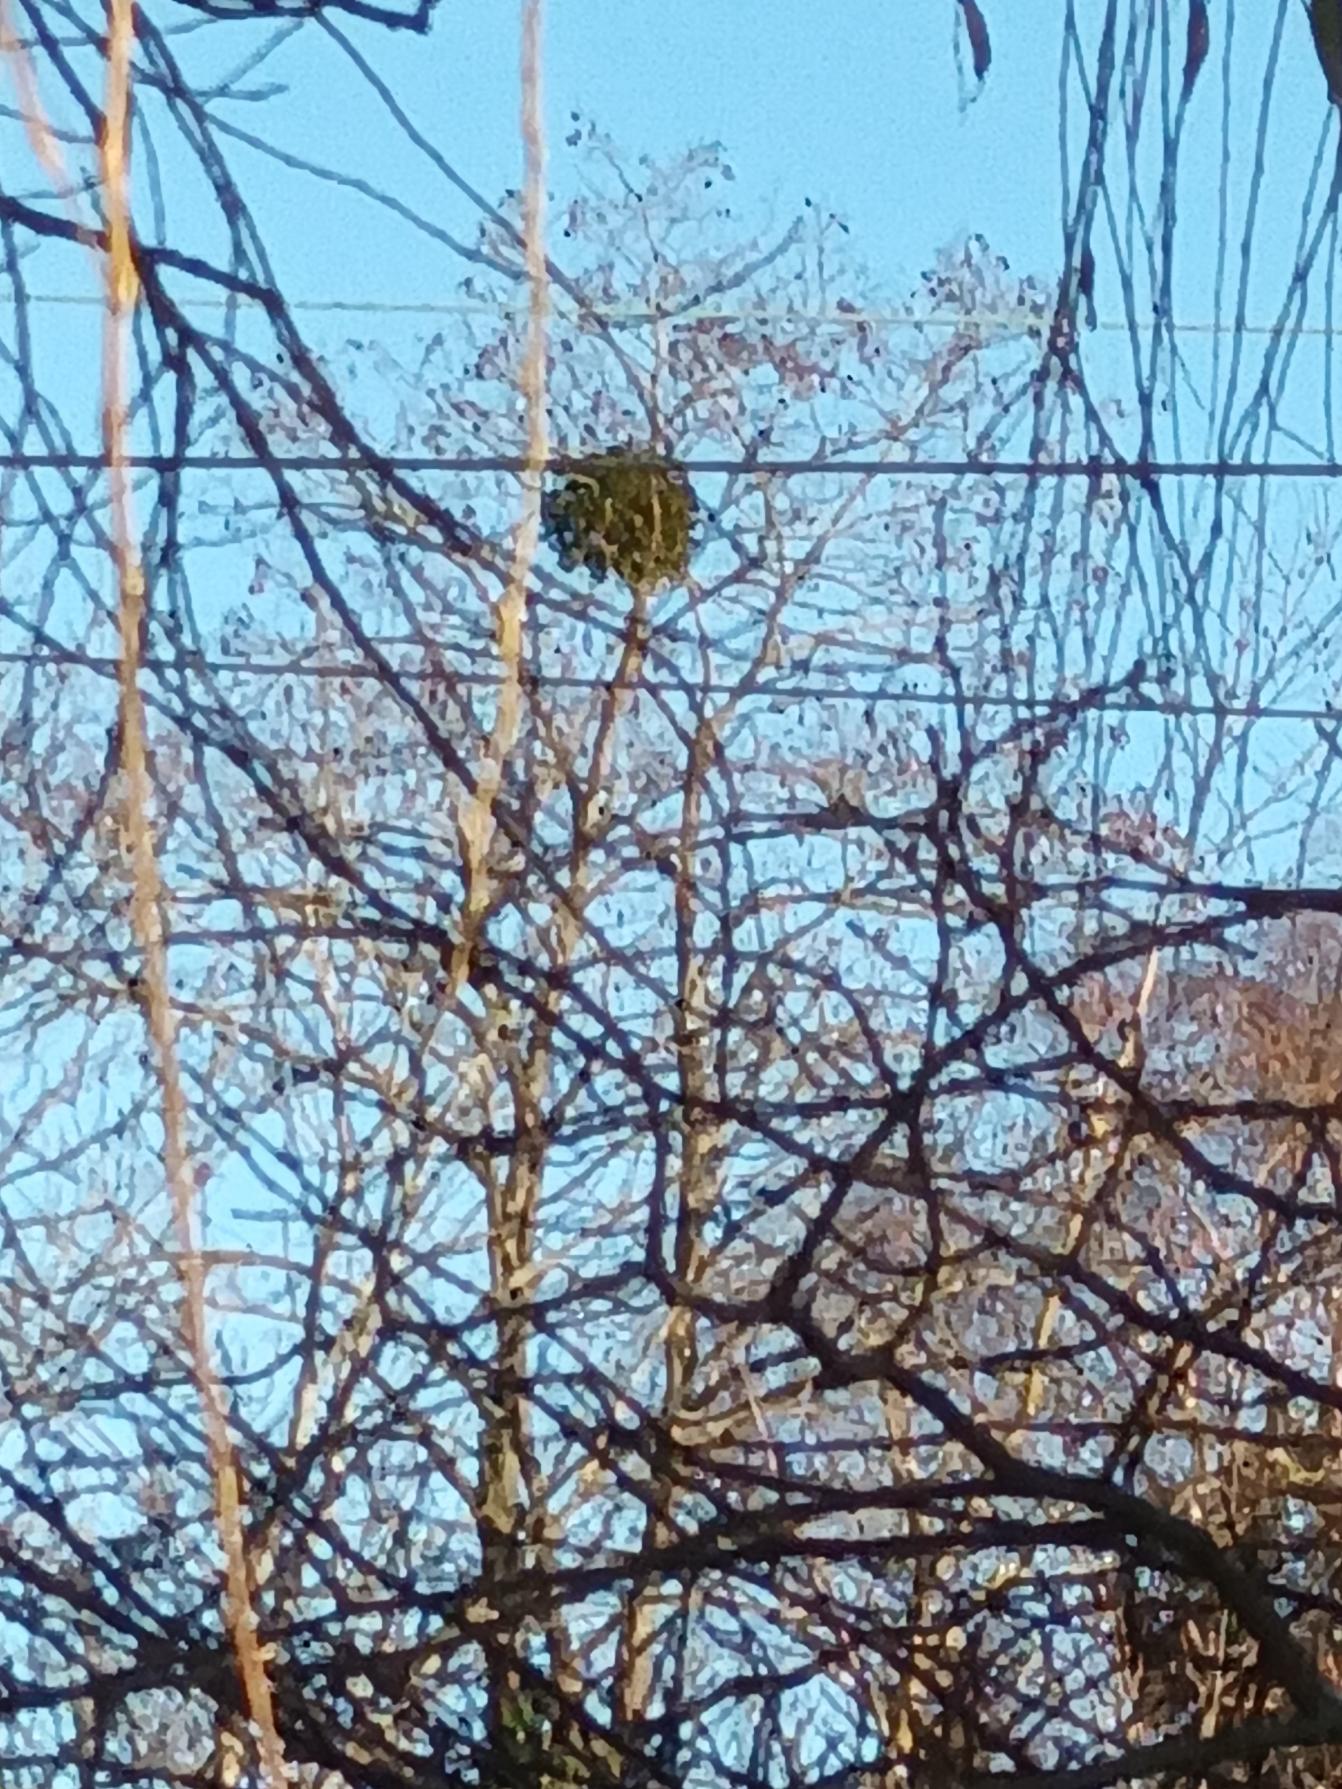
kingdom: Plantae
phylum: Tracheophyta
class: Magnoliopsida
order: Santalales
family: Viscaceae
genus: Viscum
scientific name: Viscum album
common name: Mistelten
